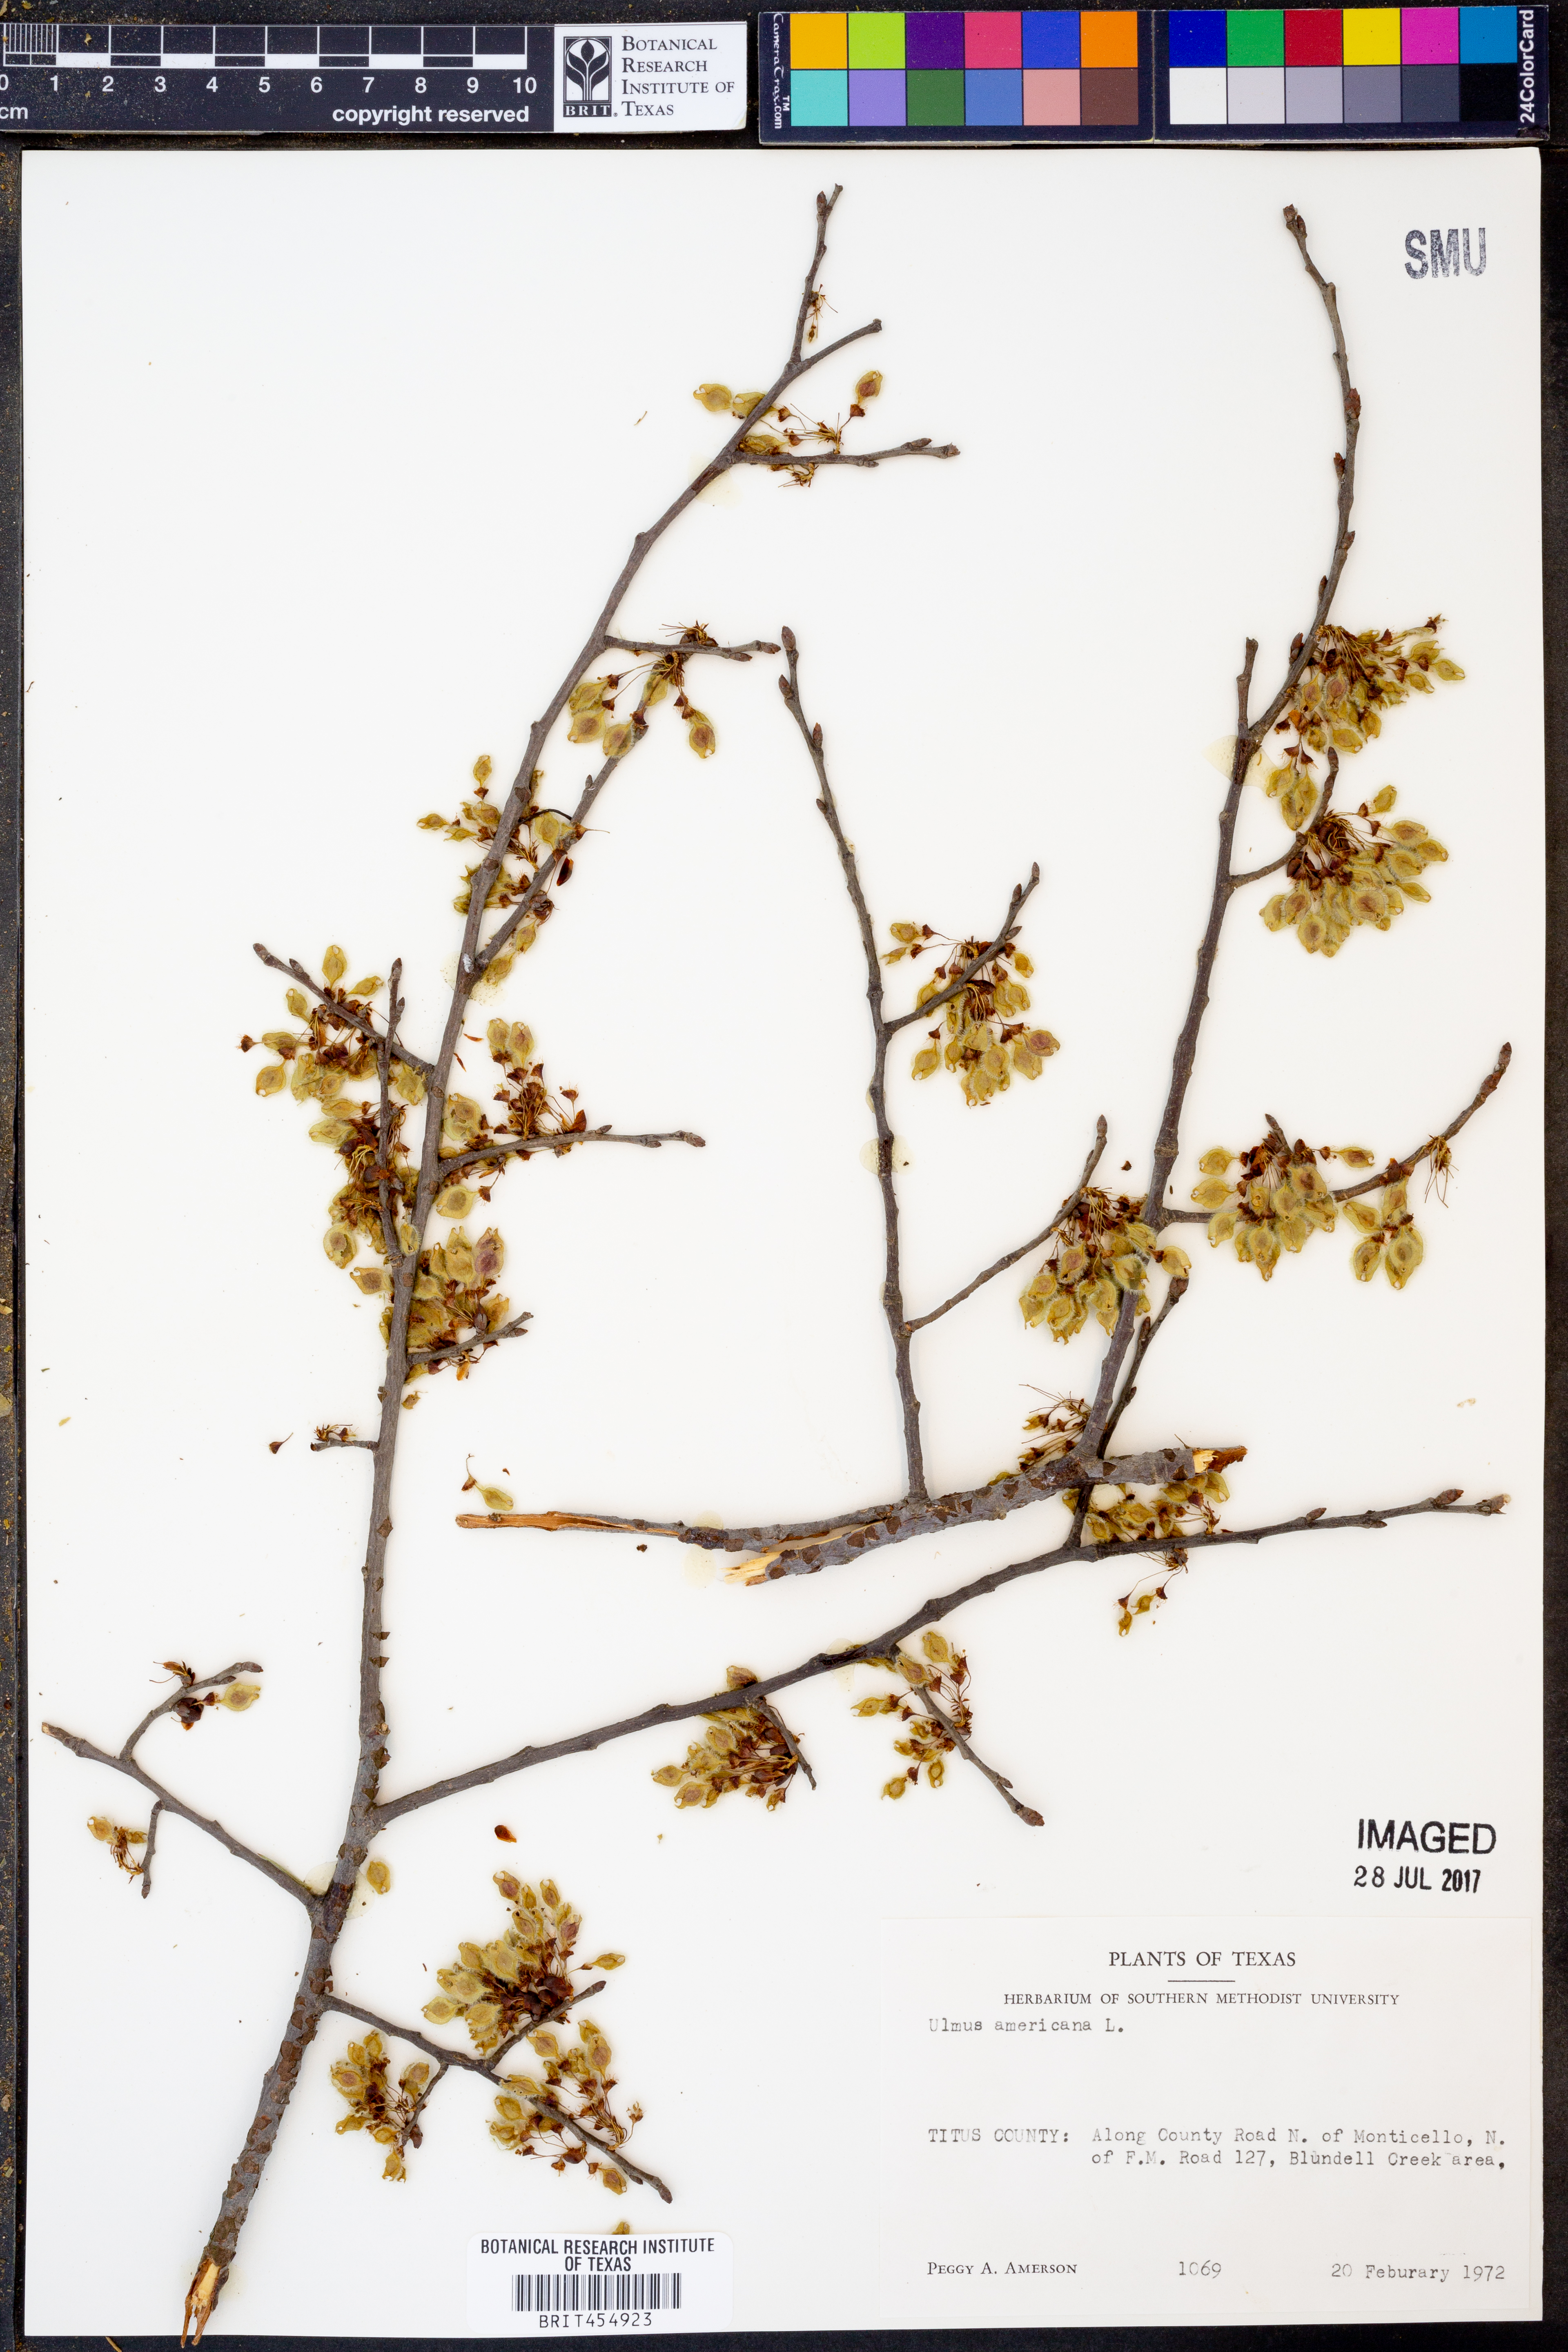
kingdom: Plantae
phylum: Tracheophyta
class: Magnoliopsida
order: Rosales
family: Ulmaceae
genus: Ulmus
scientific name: Ulmus americana
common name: American elm
